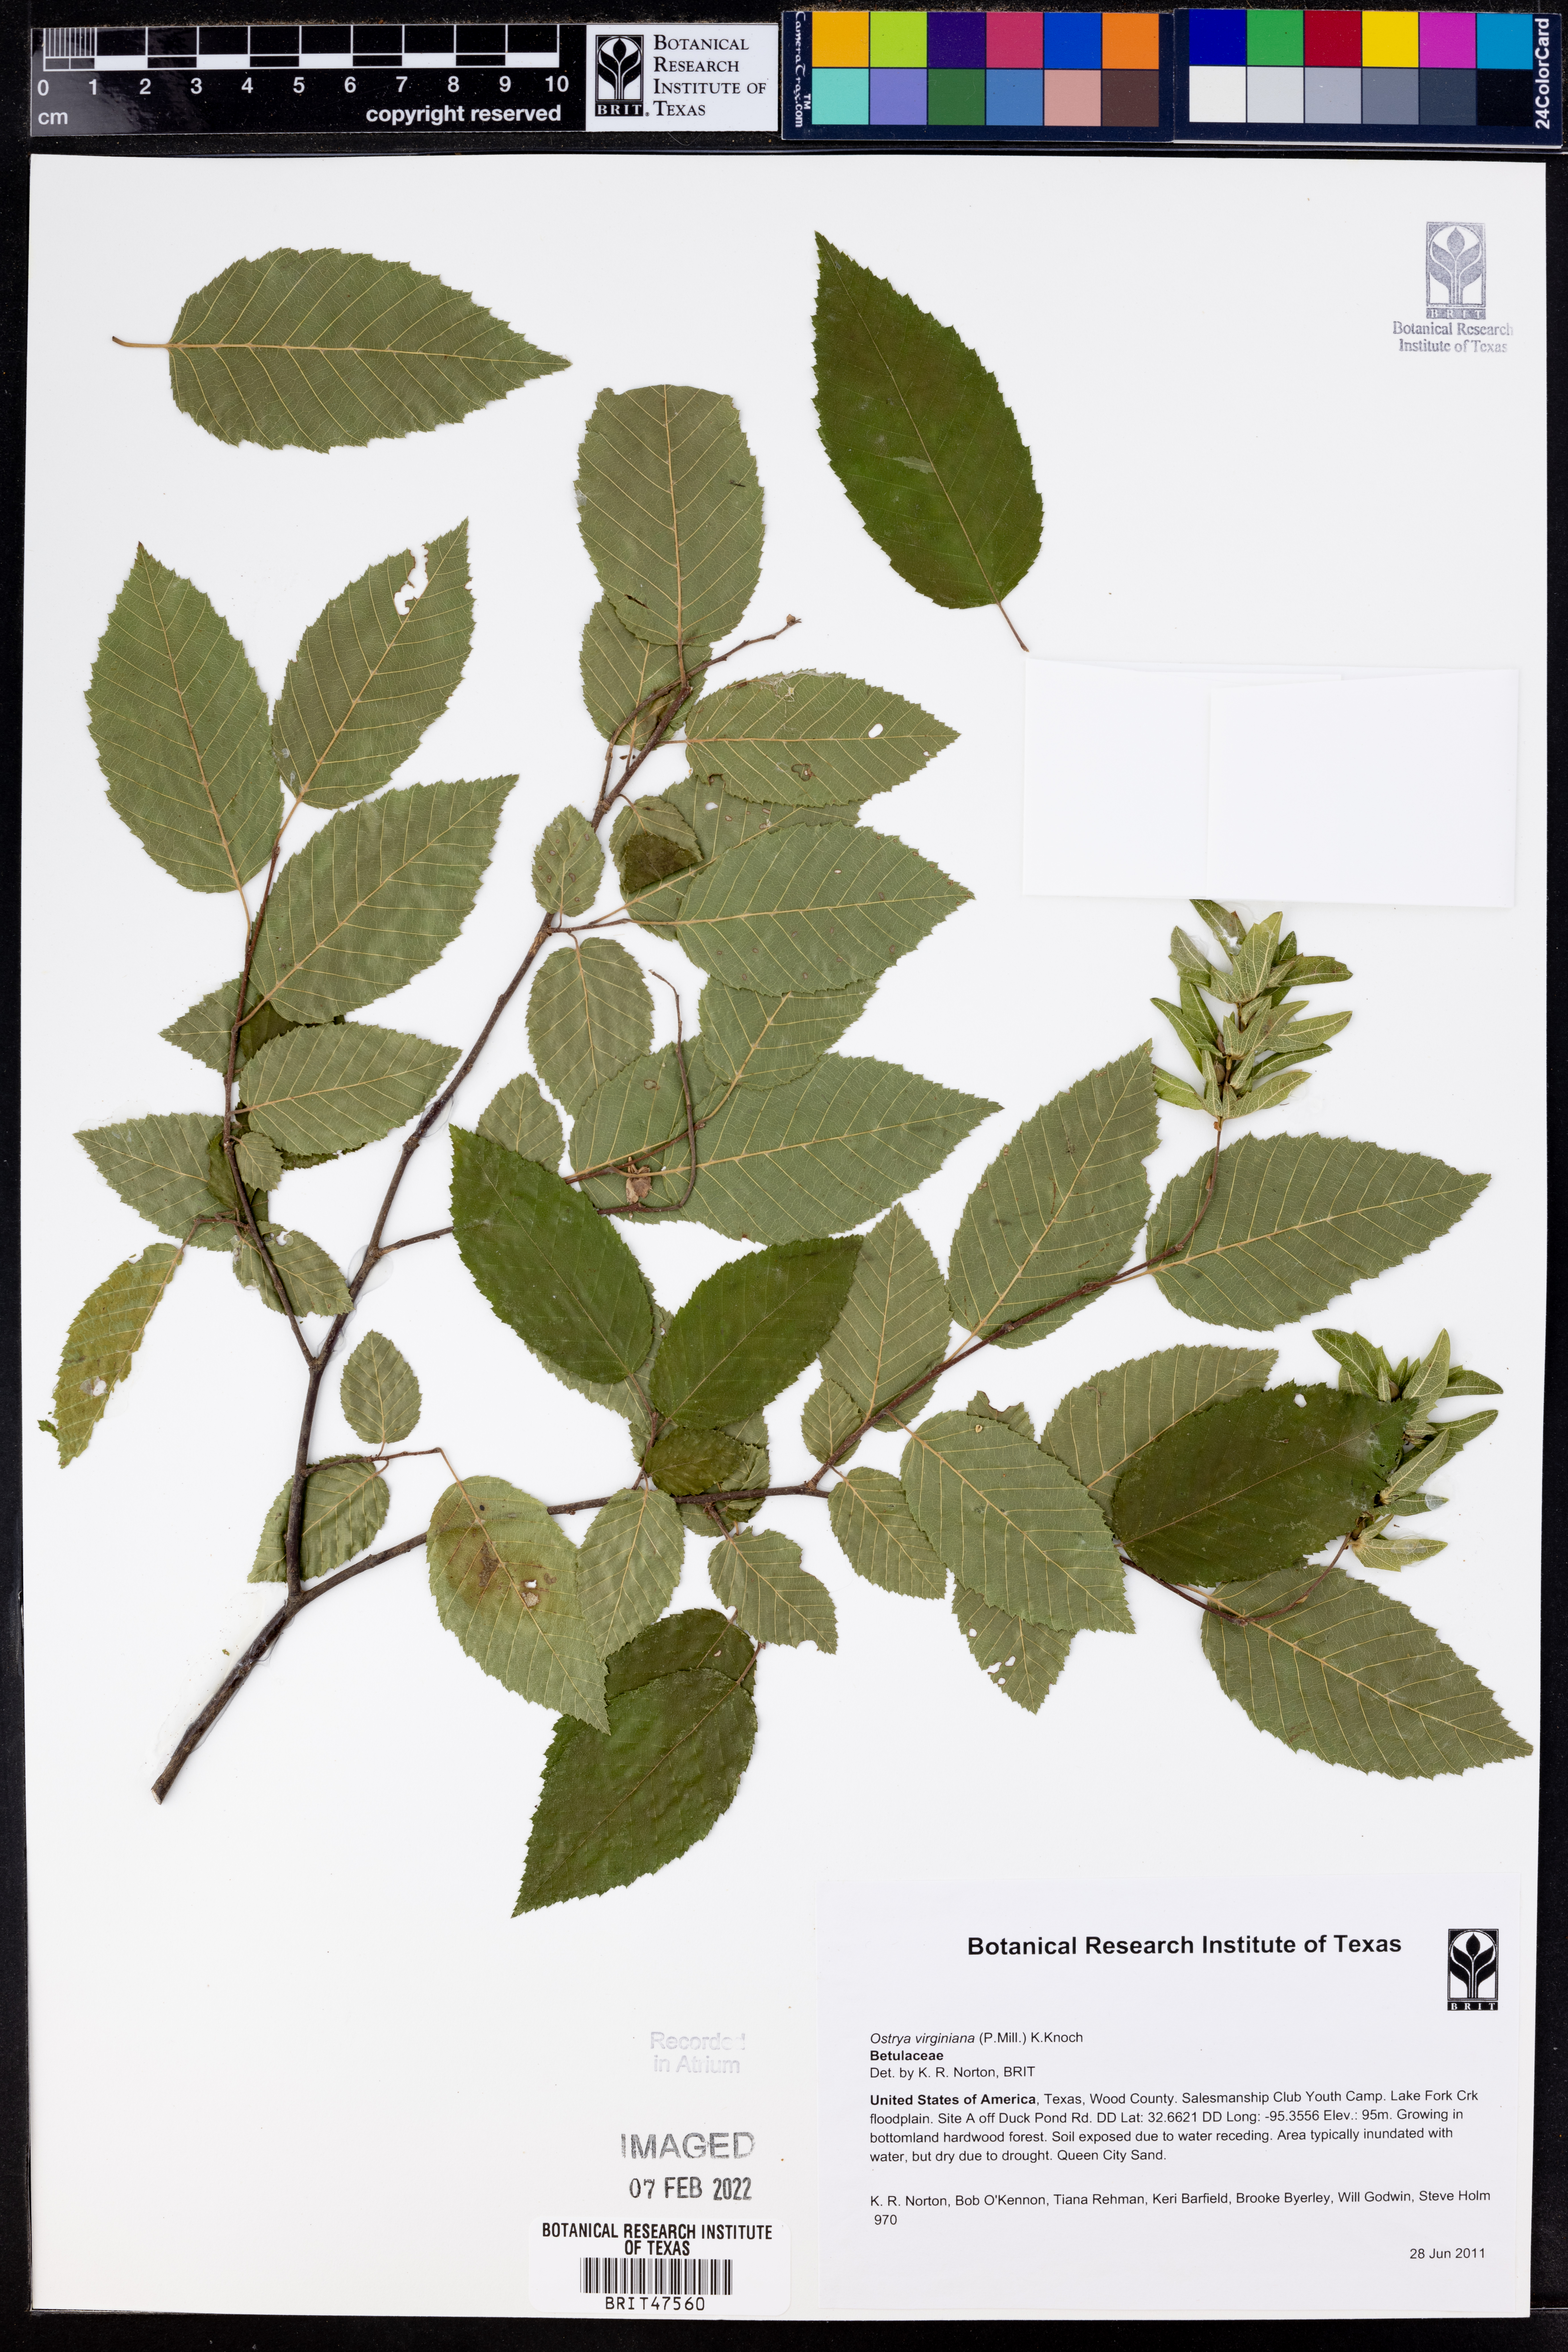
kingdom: Plantae
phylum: Tracheophyta
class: Magnoliopsida
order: Fagales
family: Betulaceae
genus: Ostrya
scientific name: Ostrya virginiana
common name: Ironwood
